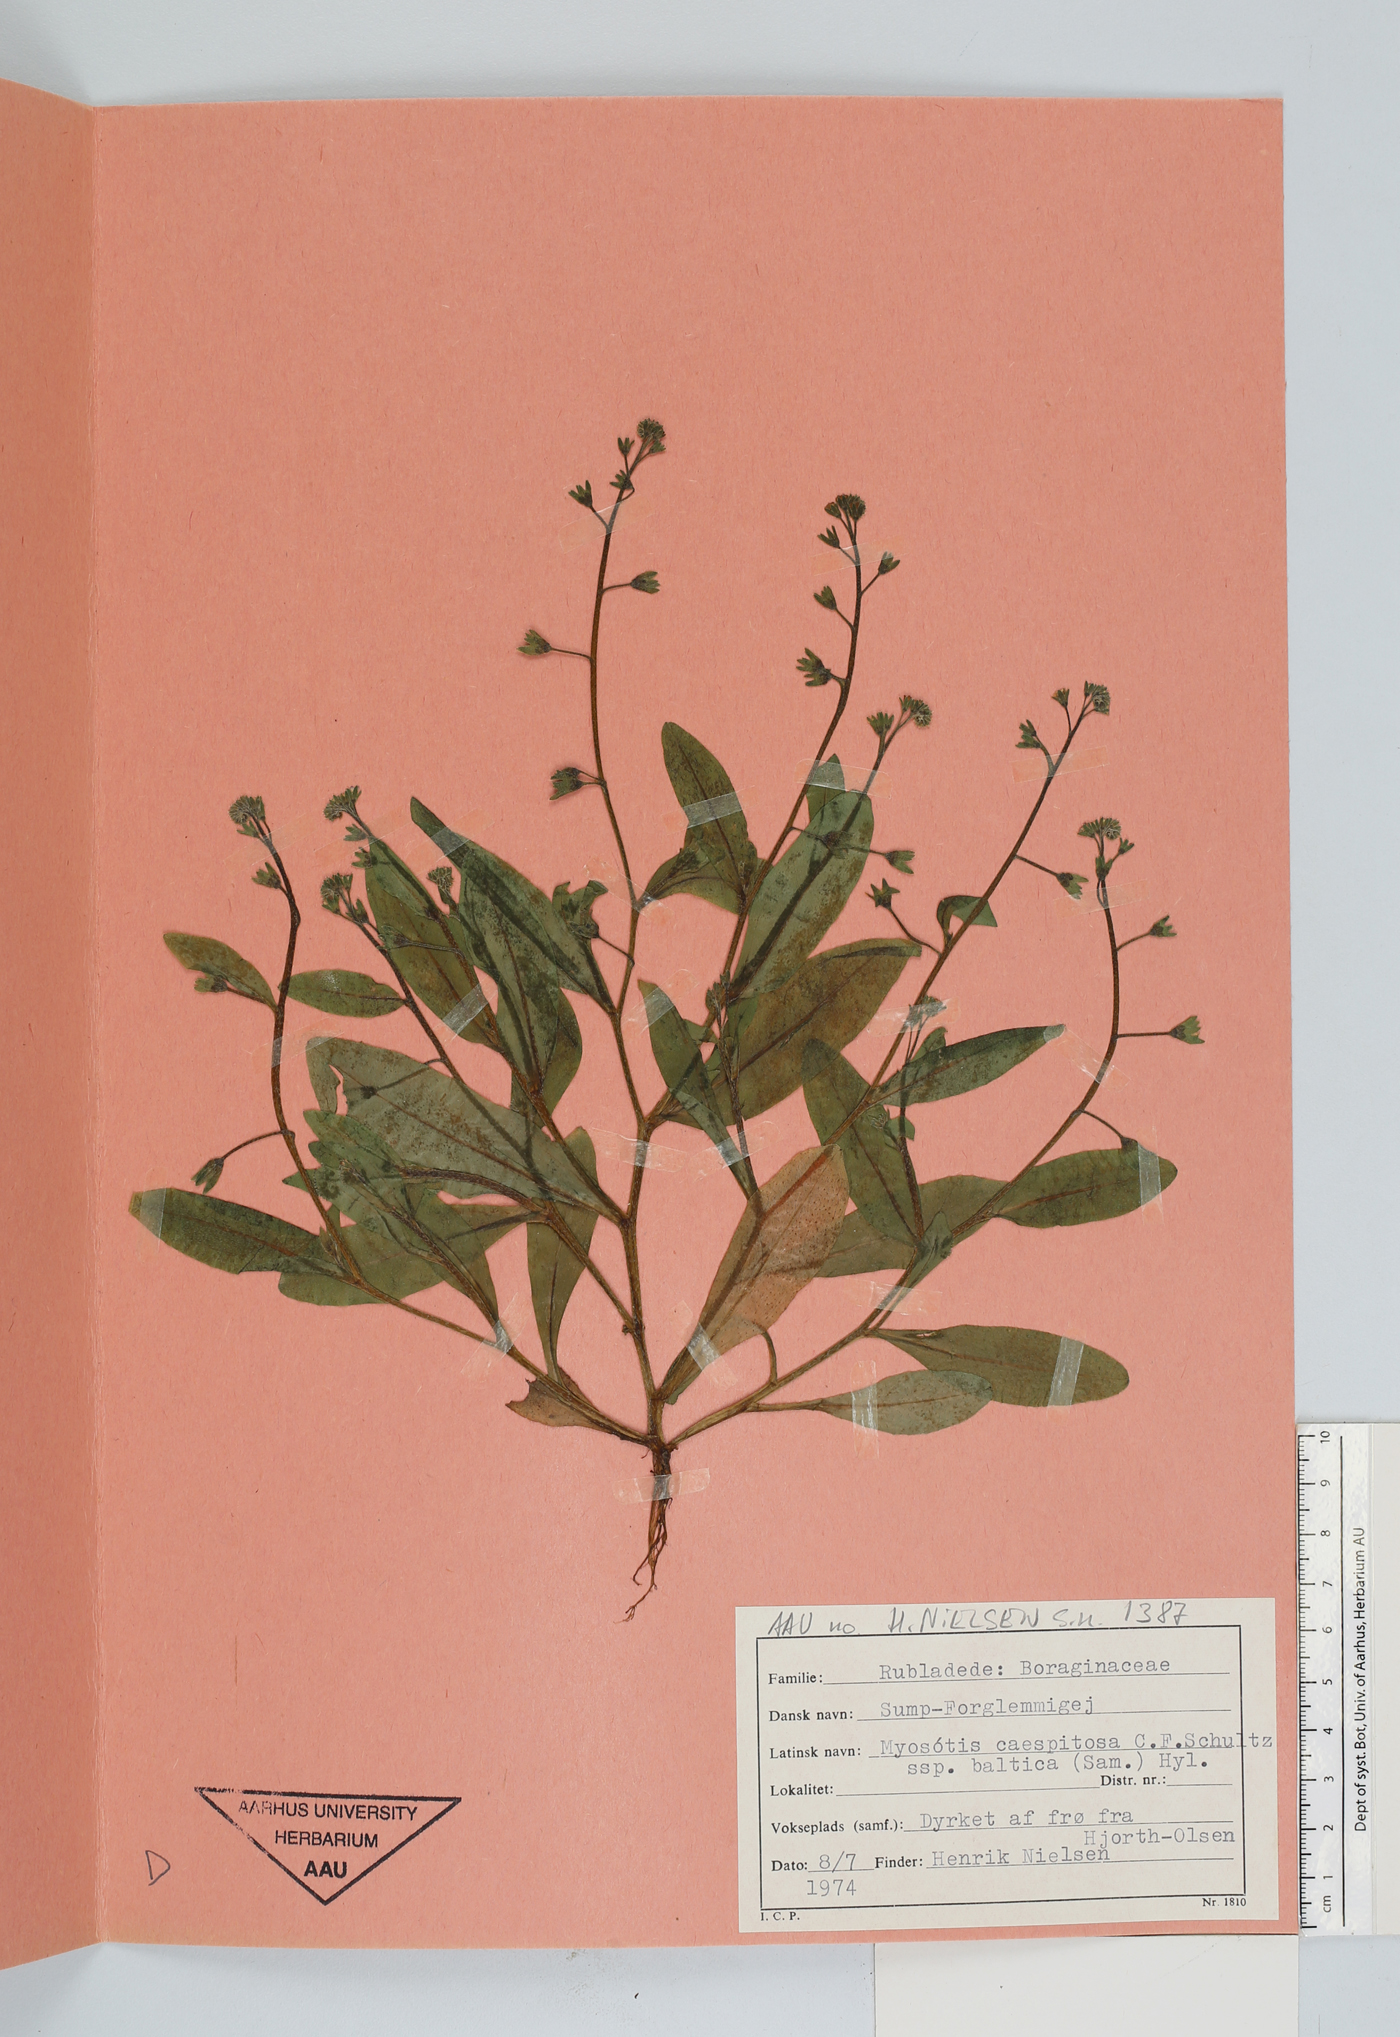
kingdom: Plantae
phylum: Tracheophyta
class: Magnoliopsida
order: Boraginales
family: Boraginaceae
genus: Myosotis
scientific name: Myosotis laxa
